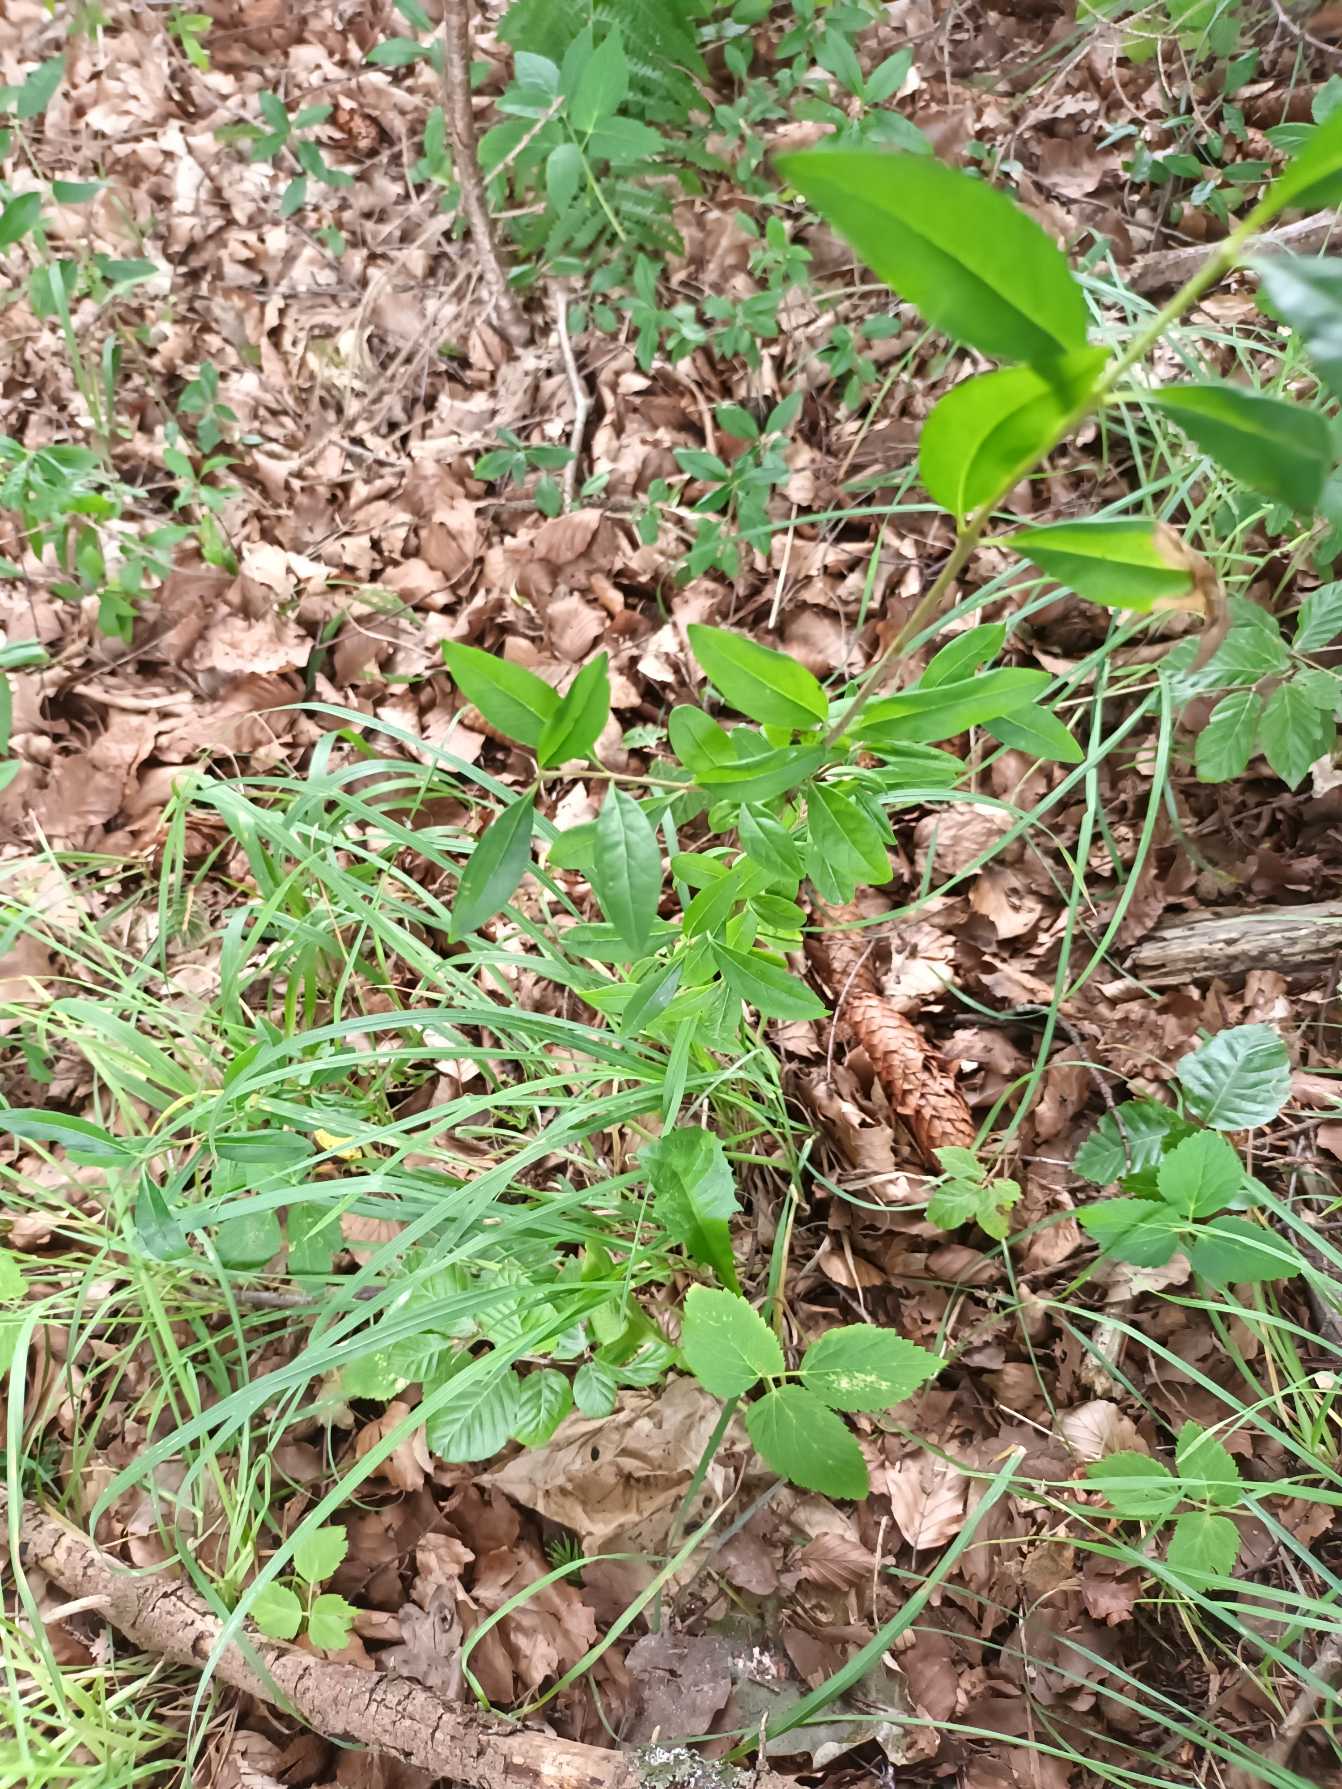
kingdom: Plantae
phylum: Tracheophyta
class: Magnoliopsida
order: Lamiales
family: Oleaceae
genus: Ligustrum
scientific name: Ligustrum vulgare
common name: Liguster
